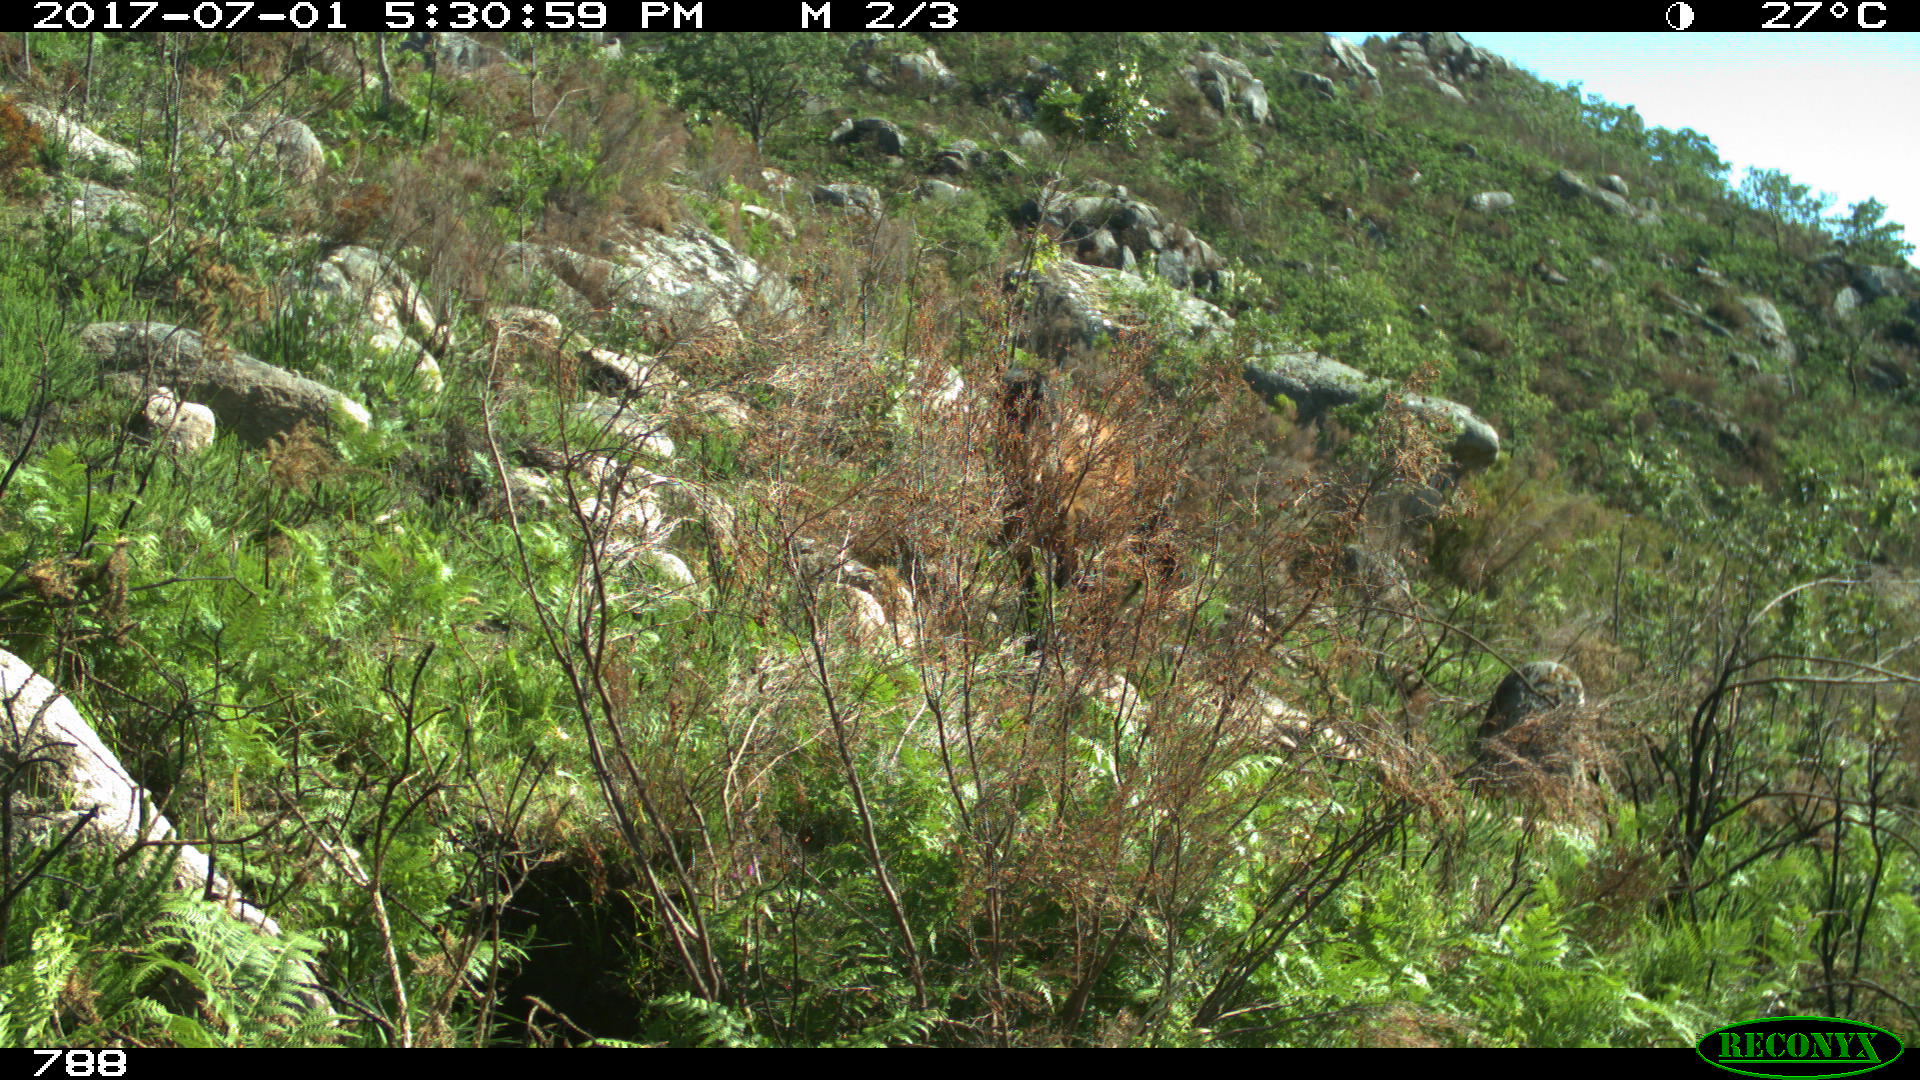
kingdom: Animalia
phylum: Chordata
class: Mammalia
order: Perissodactyla
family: Equidae
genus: Equus
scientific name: Equus caballus
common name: Horse
